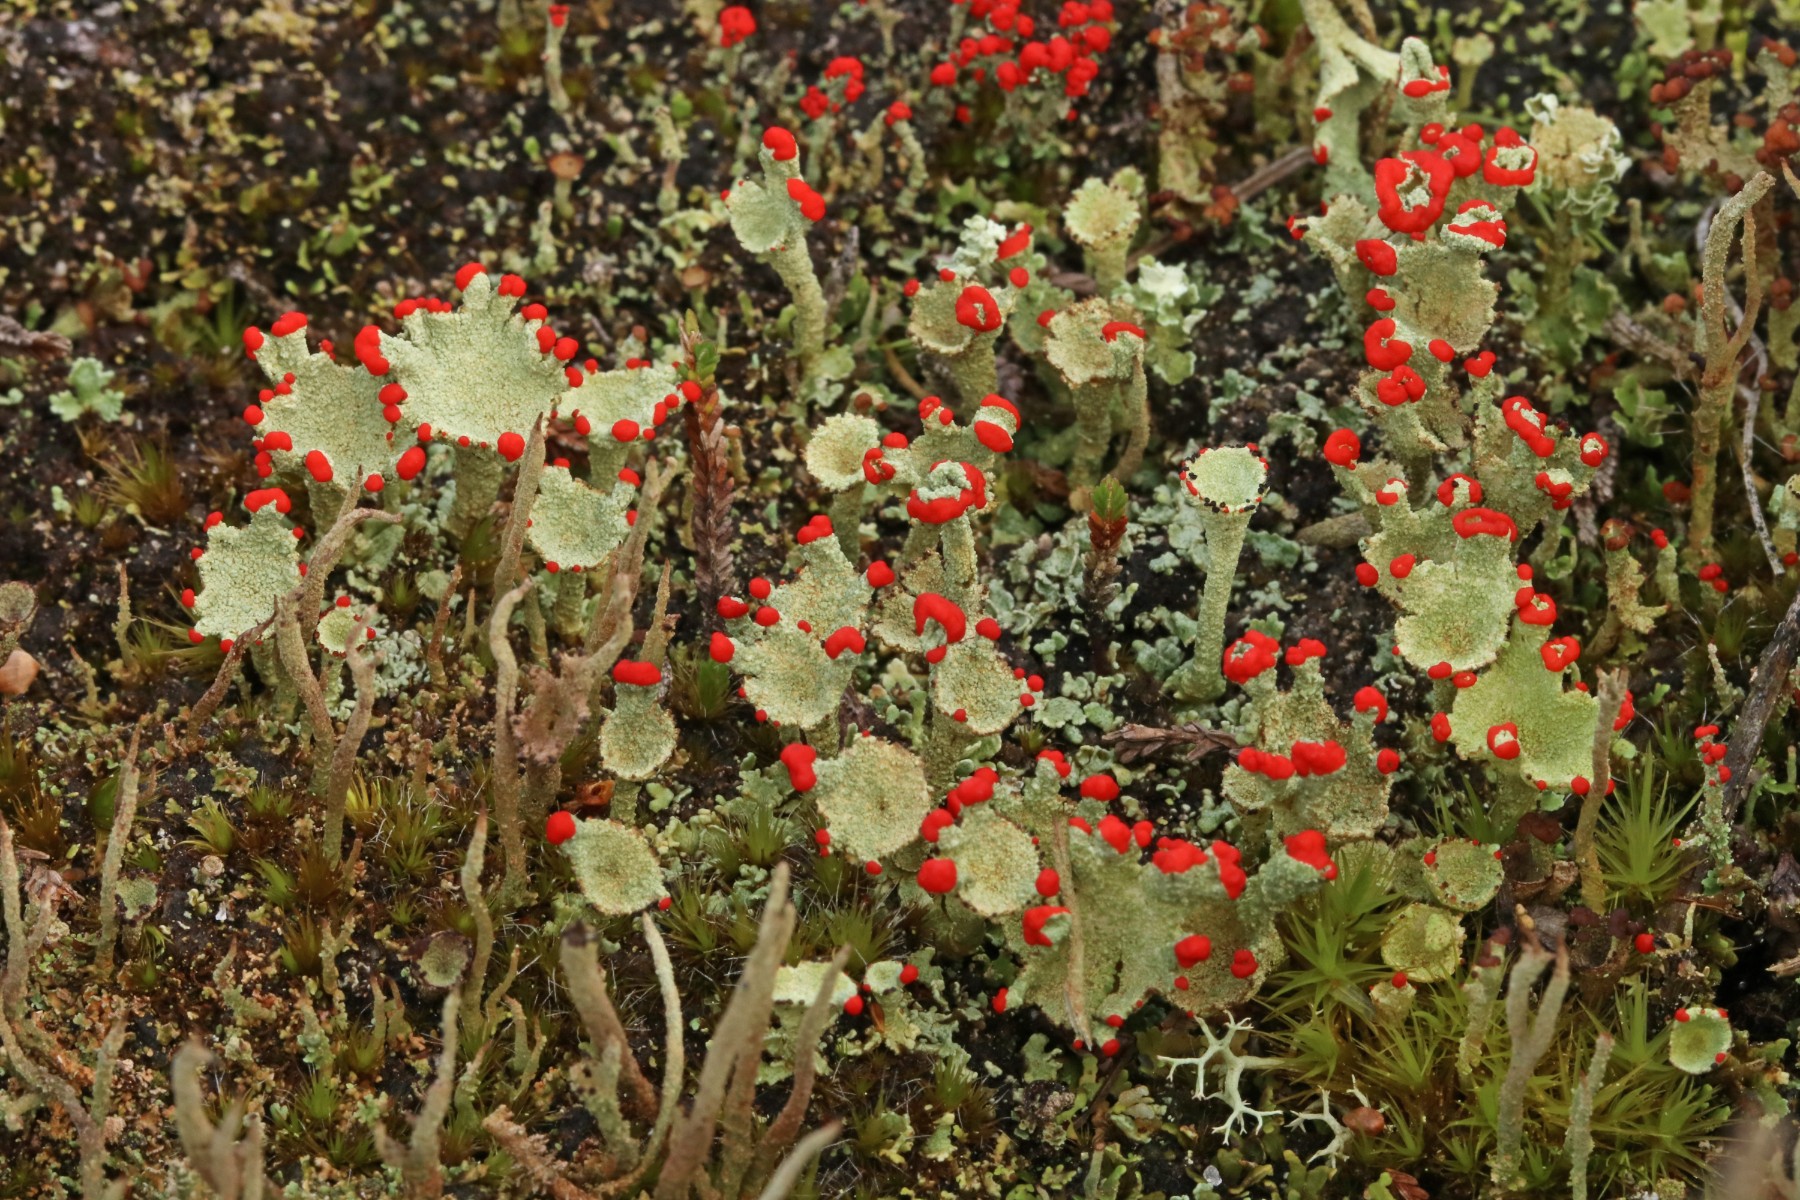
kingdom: Fungi
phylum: Ascomycota
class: Lecanoromycetes
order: Lecanorales
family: Cladoniaceae
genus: Cladonia
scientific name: Cladonia diversa
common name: rød bægerlav
